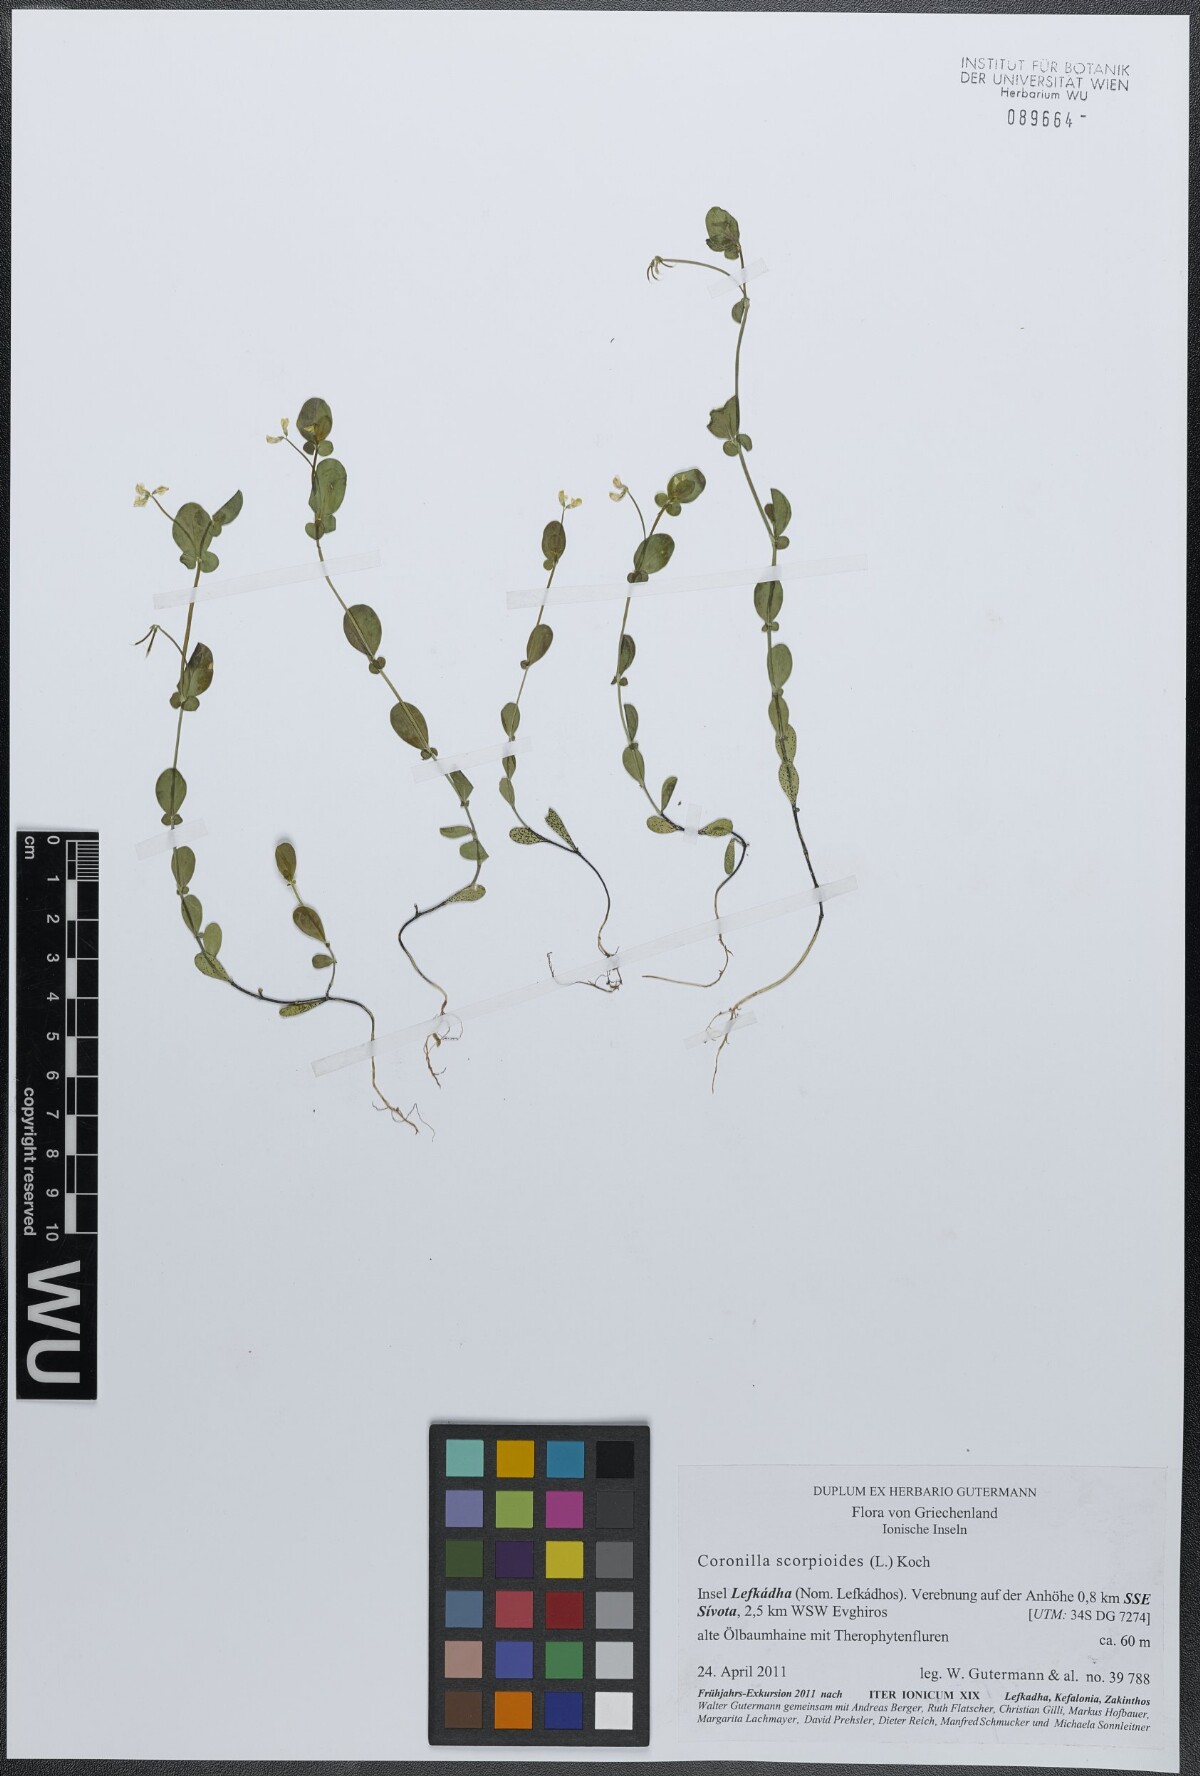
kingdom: Plantae
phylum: Tracheophyta
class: Magnoliopsida
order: Fabales
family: Fabaceae
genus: Coronilla
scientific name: Coronilla scorpioides
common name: Annual scorpion-vetch
